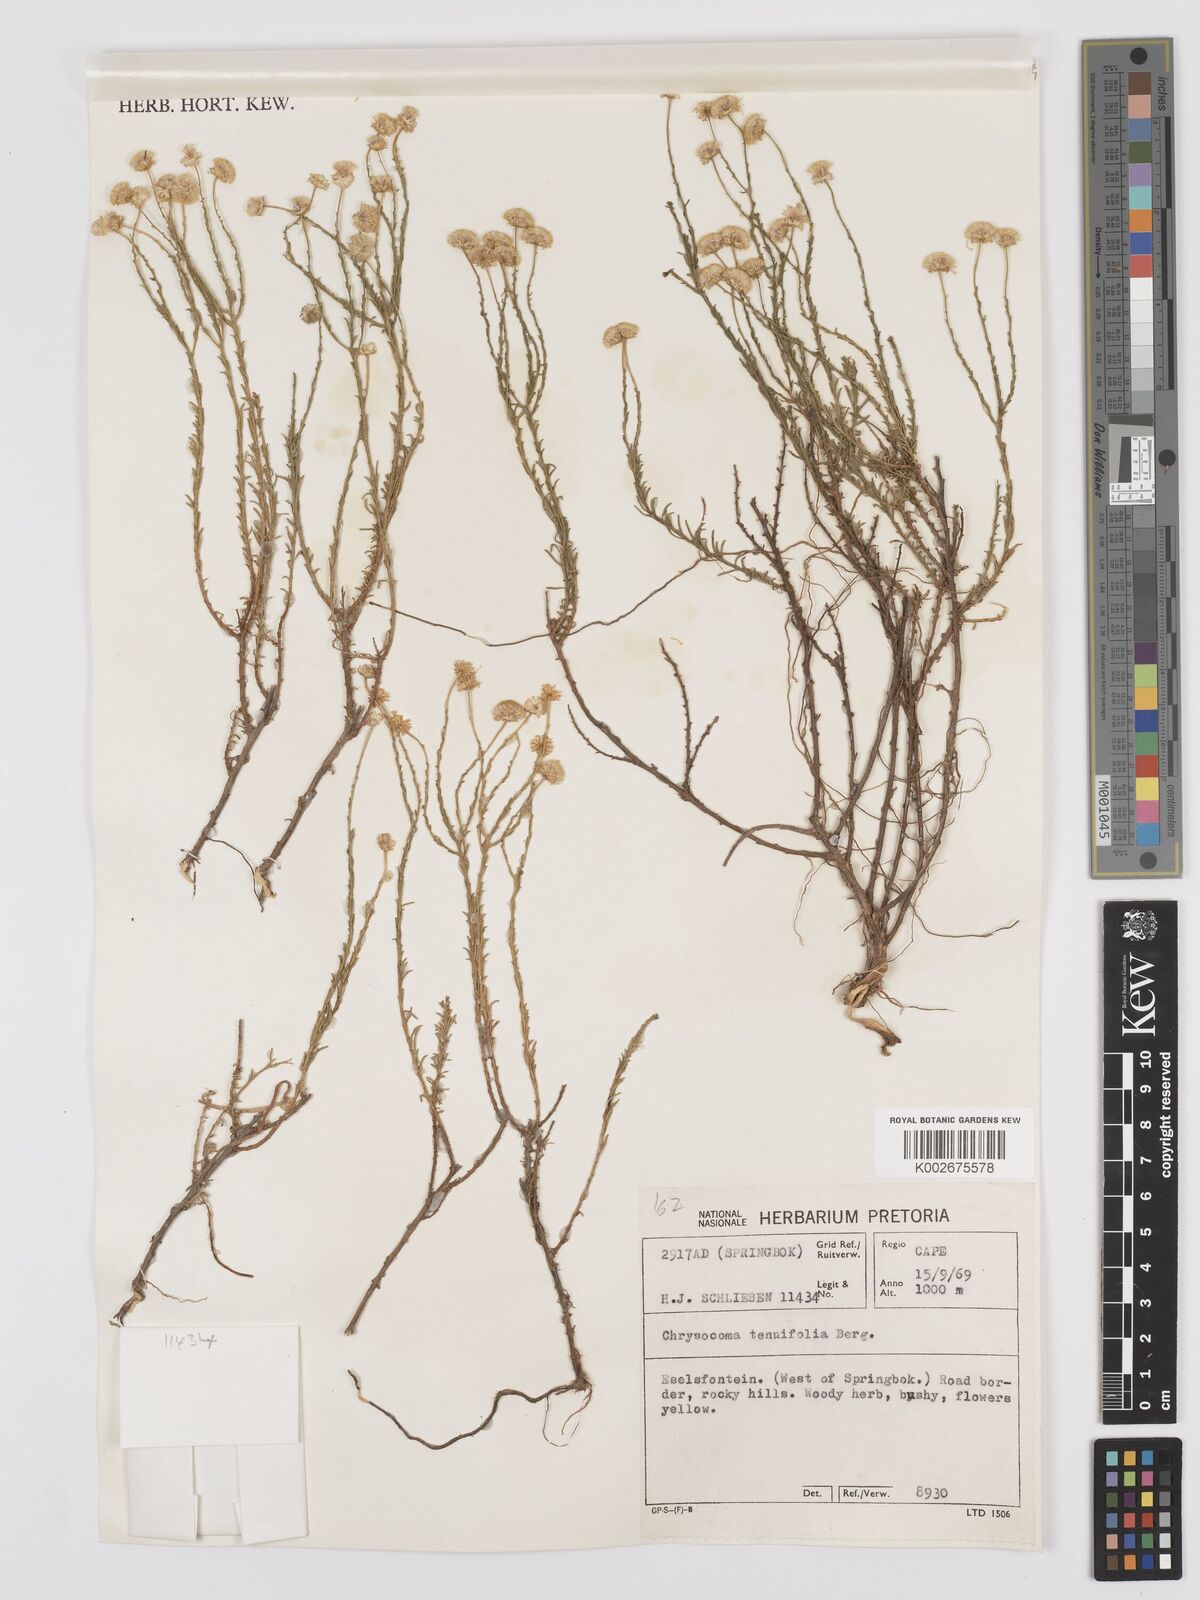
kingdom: Plantae
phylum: Tracheophyta
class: Magnoliopsida
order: Asterales
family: Asteraceae
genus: Chrysocoma
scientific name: Chrysocoma ciliata
